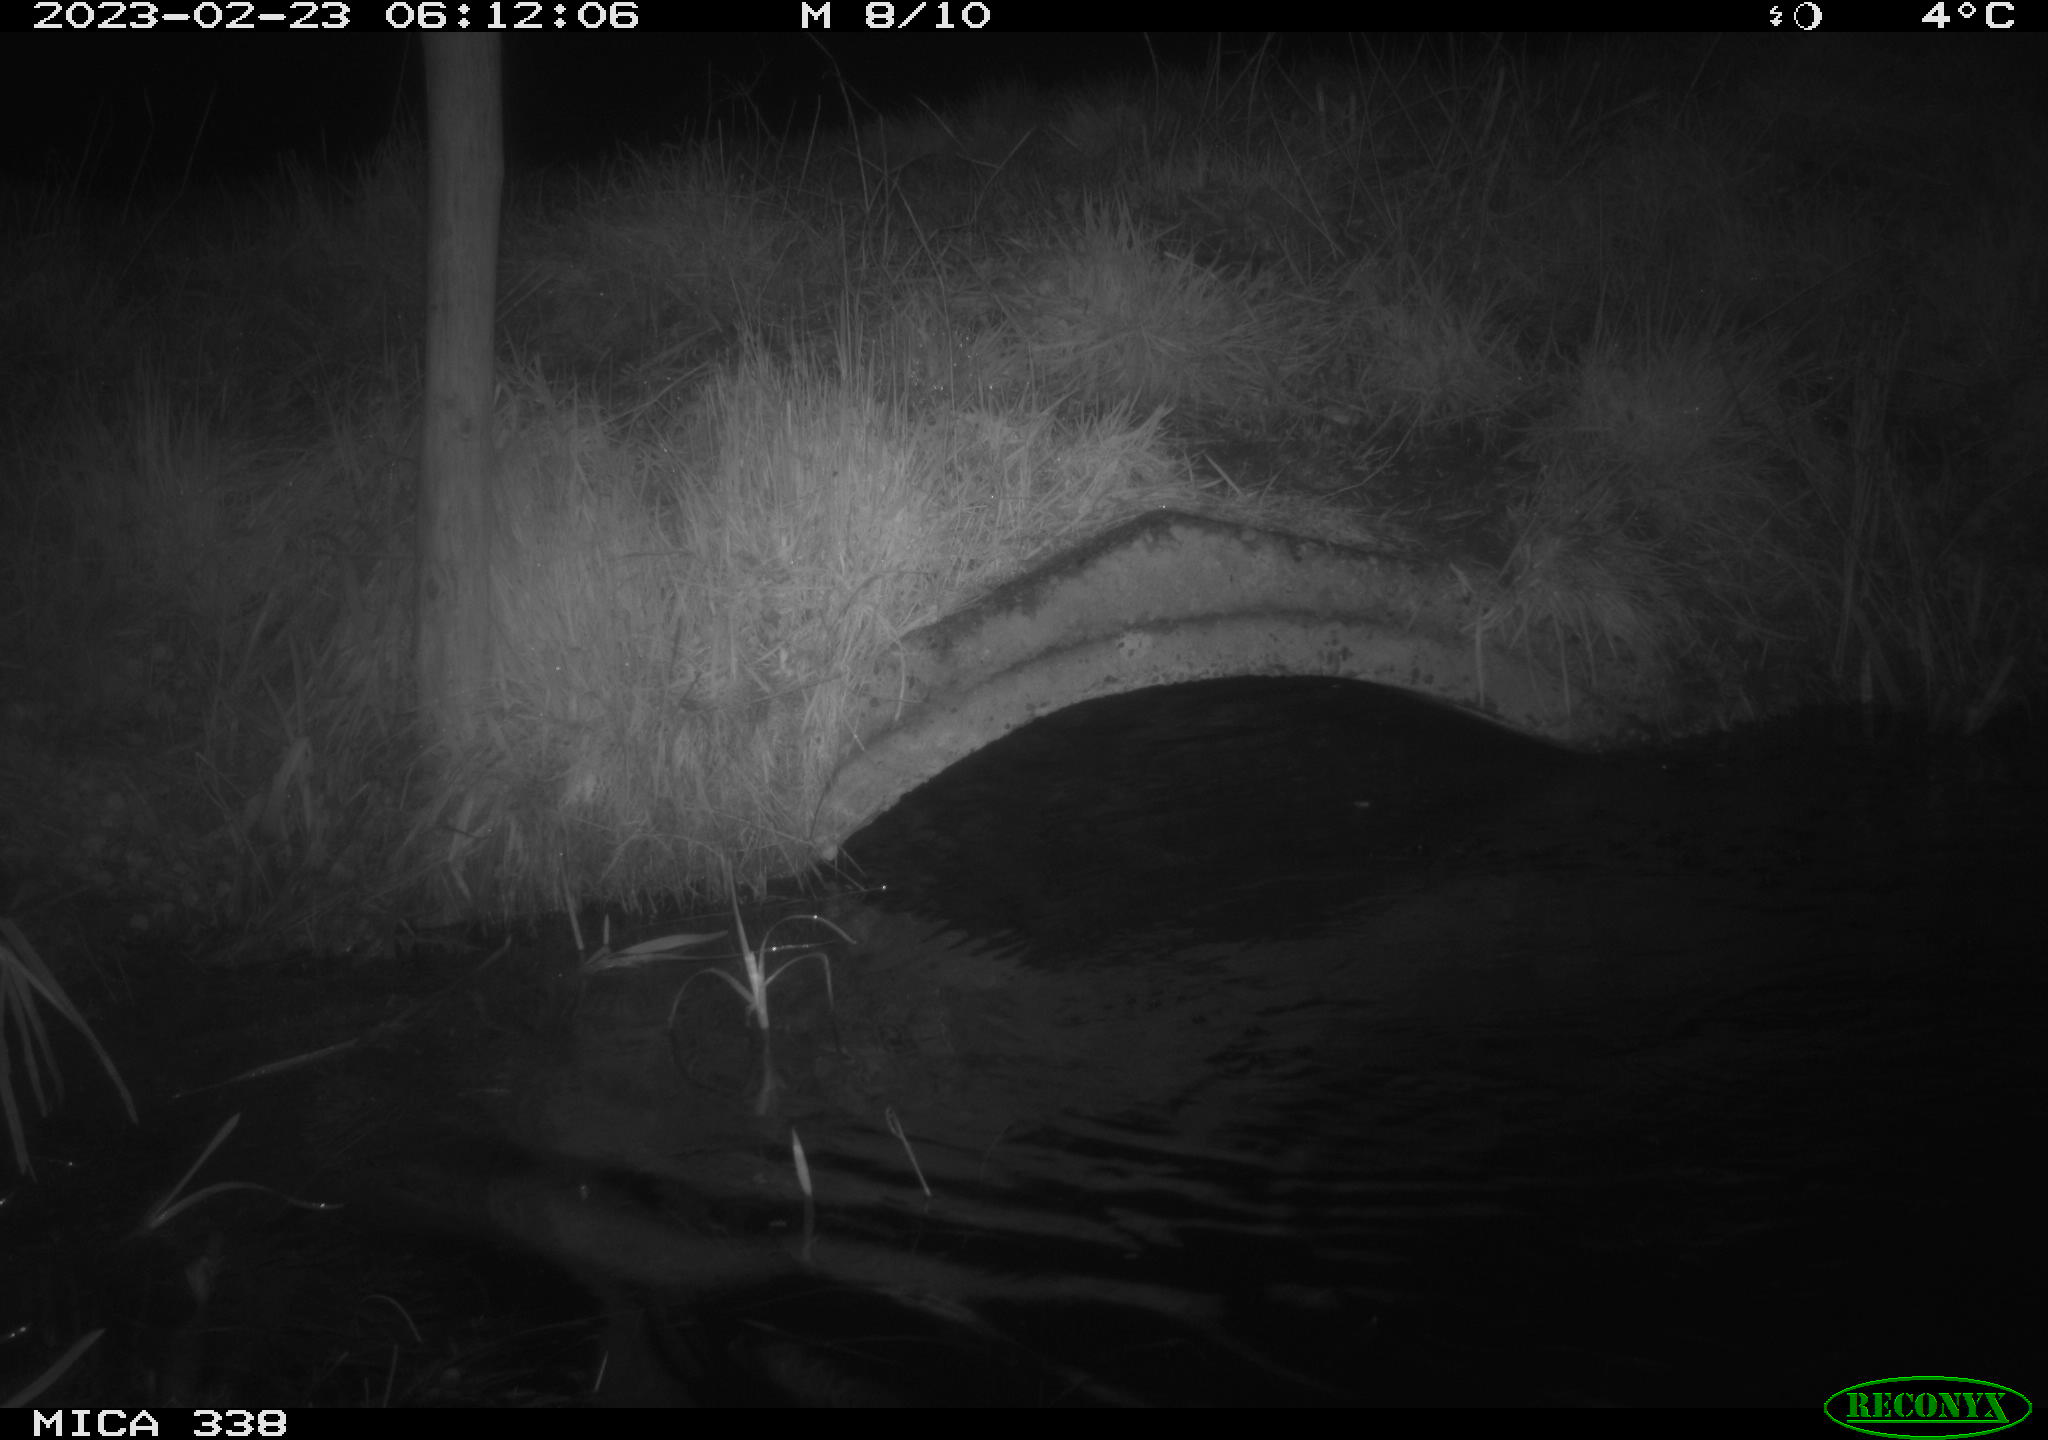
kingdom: Animalia
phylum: Chordata
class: Mammalia
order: Carnivora
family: Mustelidae
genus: Lutra
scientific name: Lutra lutra
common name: European otter
